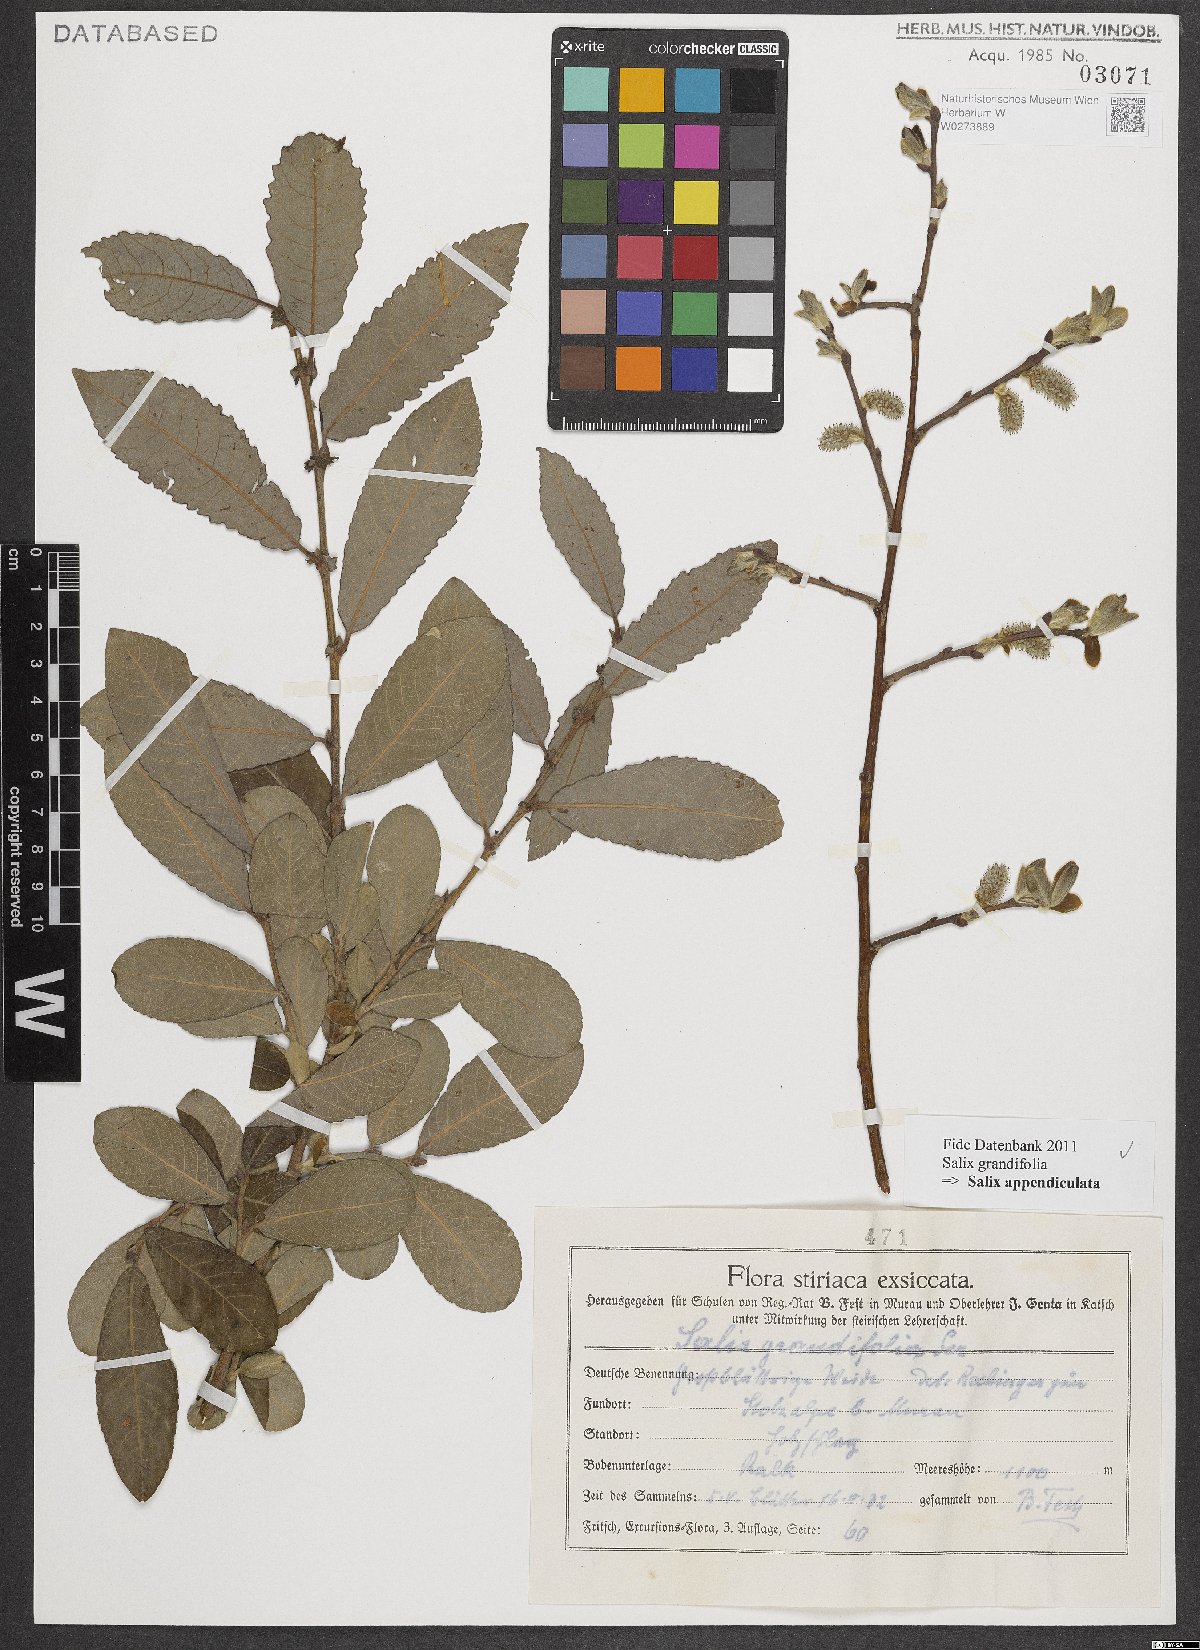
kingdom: Plantae
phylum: Tracheophyta
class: Magnoliopsida
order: Malpighiales
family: Salicaceae
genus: Salix
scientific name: Salix appendiculata
